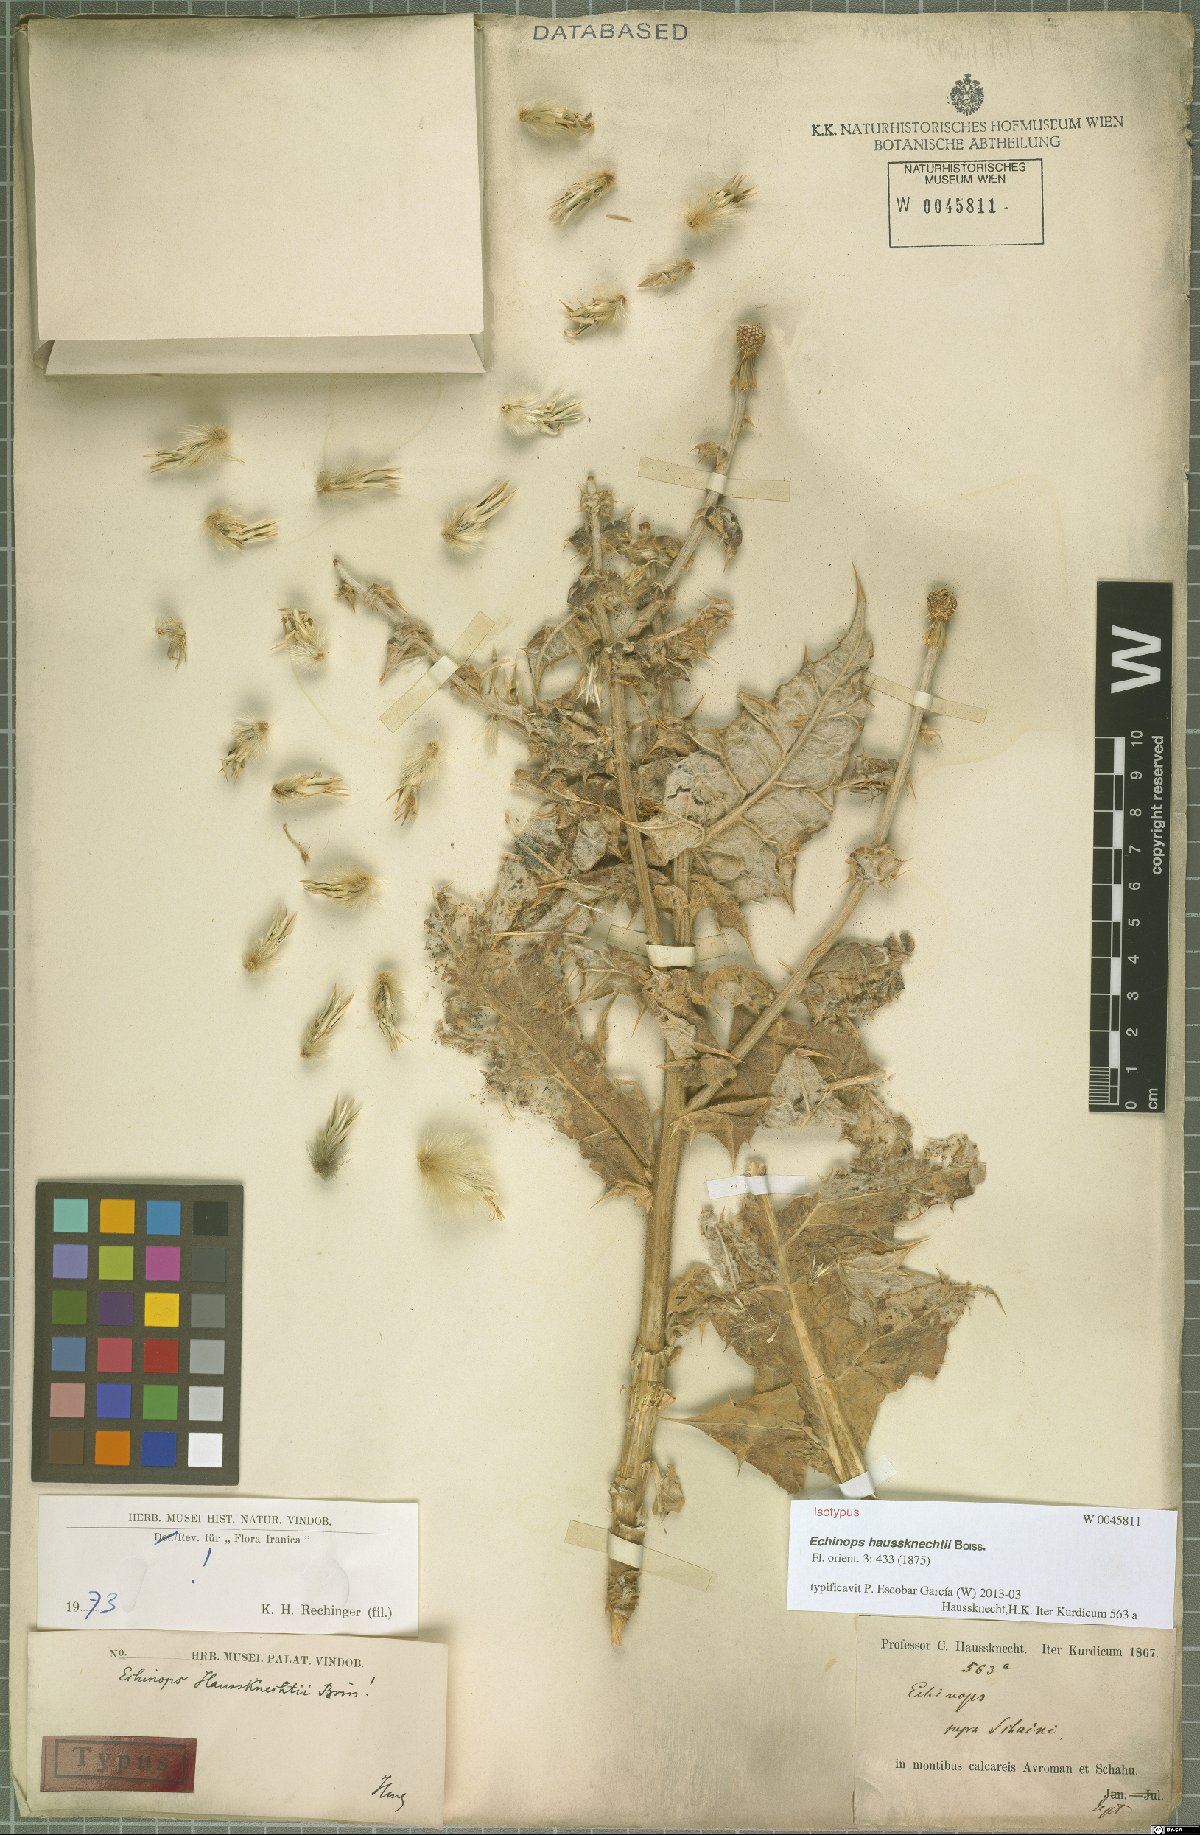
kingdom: Plantae
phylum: Tracheophyta
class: Magnoliopsida
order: Asterales
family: Asteraceae
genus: Echinops
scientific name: Echinops haussknechtii
